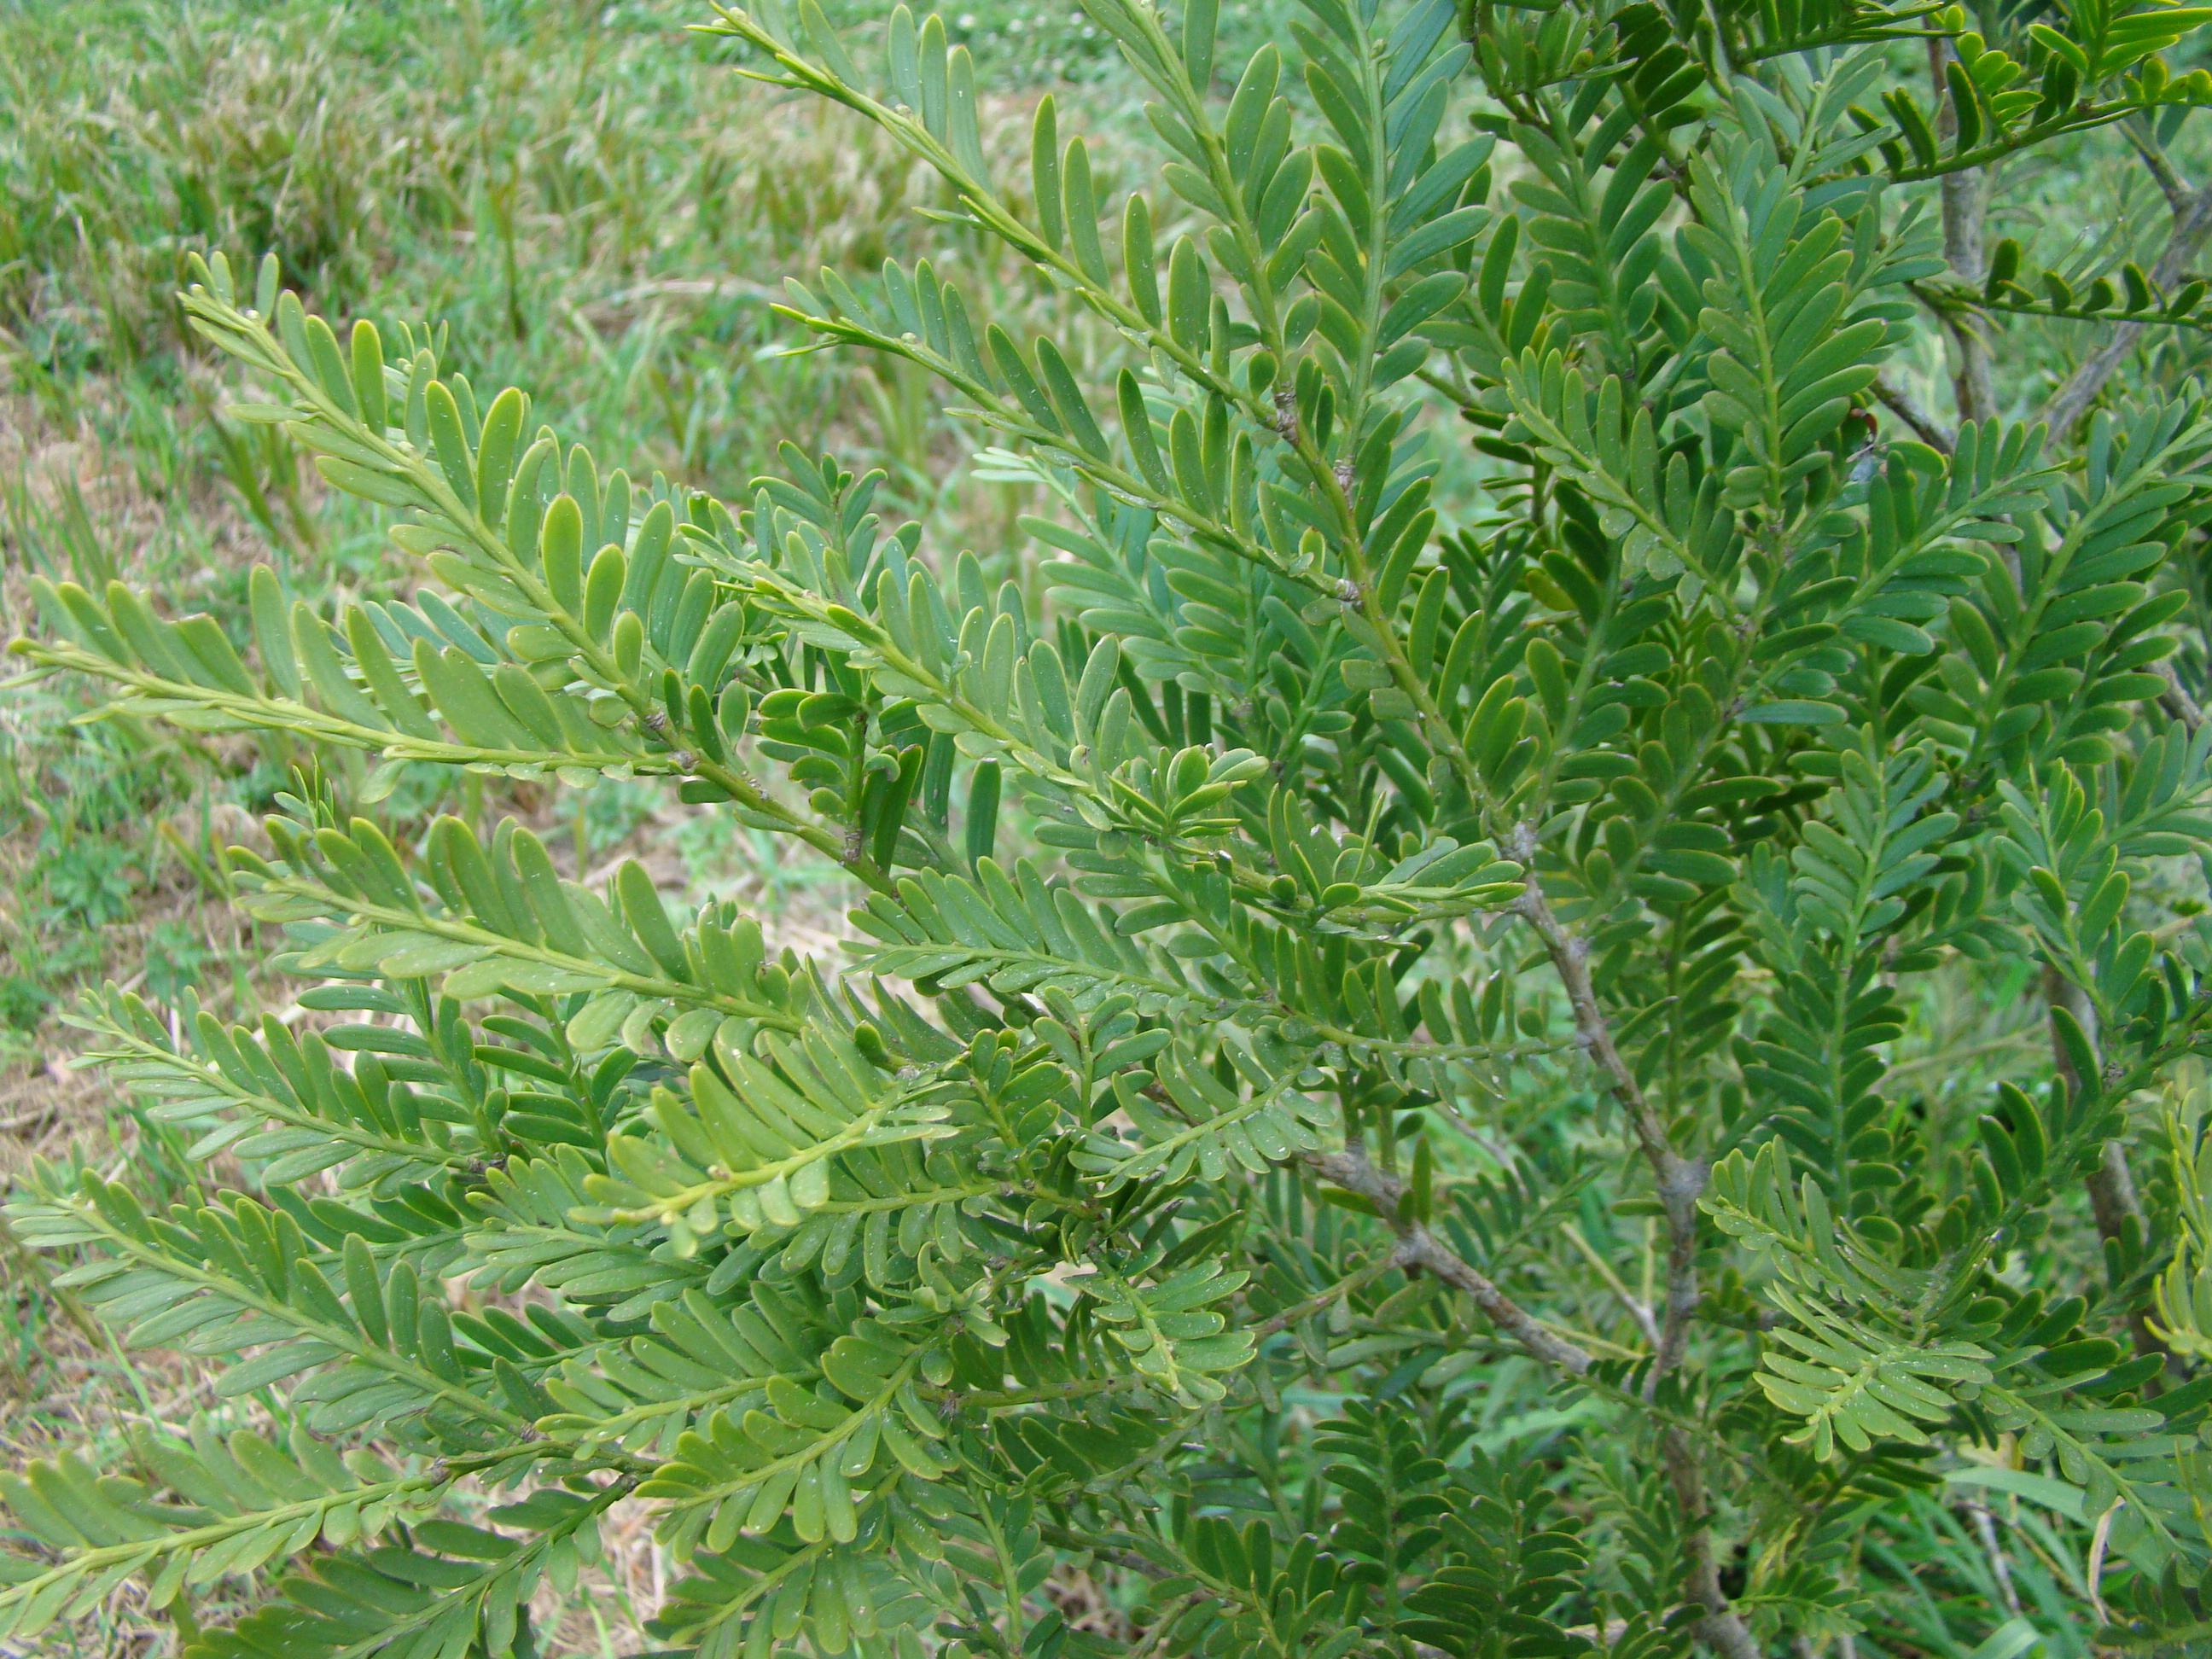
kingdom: Plantae
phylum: Tracheophyta
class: Pinopsida
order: Pinales
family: Podocarpaceae
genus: Prumnopitys
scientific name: Prumnopitys ladei
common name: Mt spurgeon black pine
